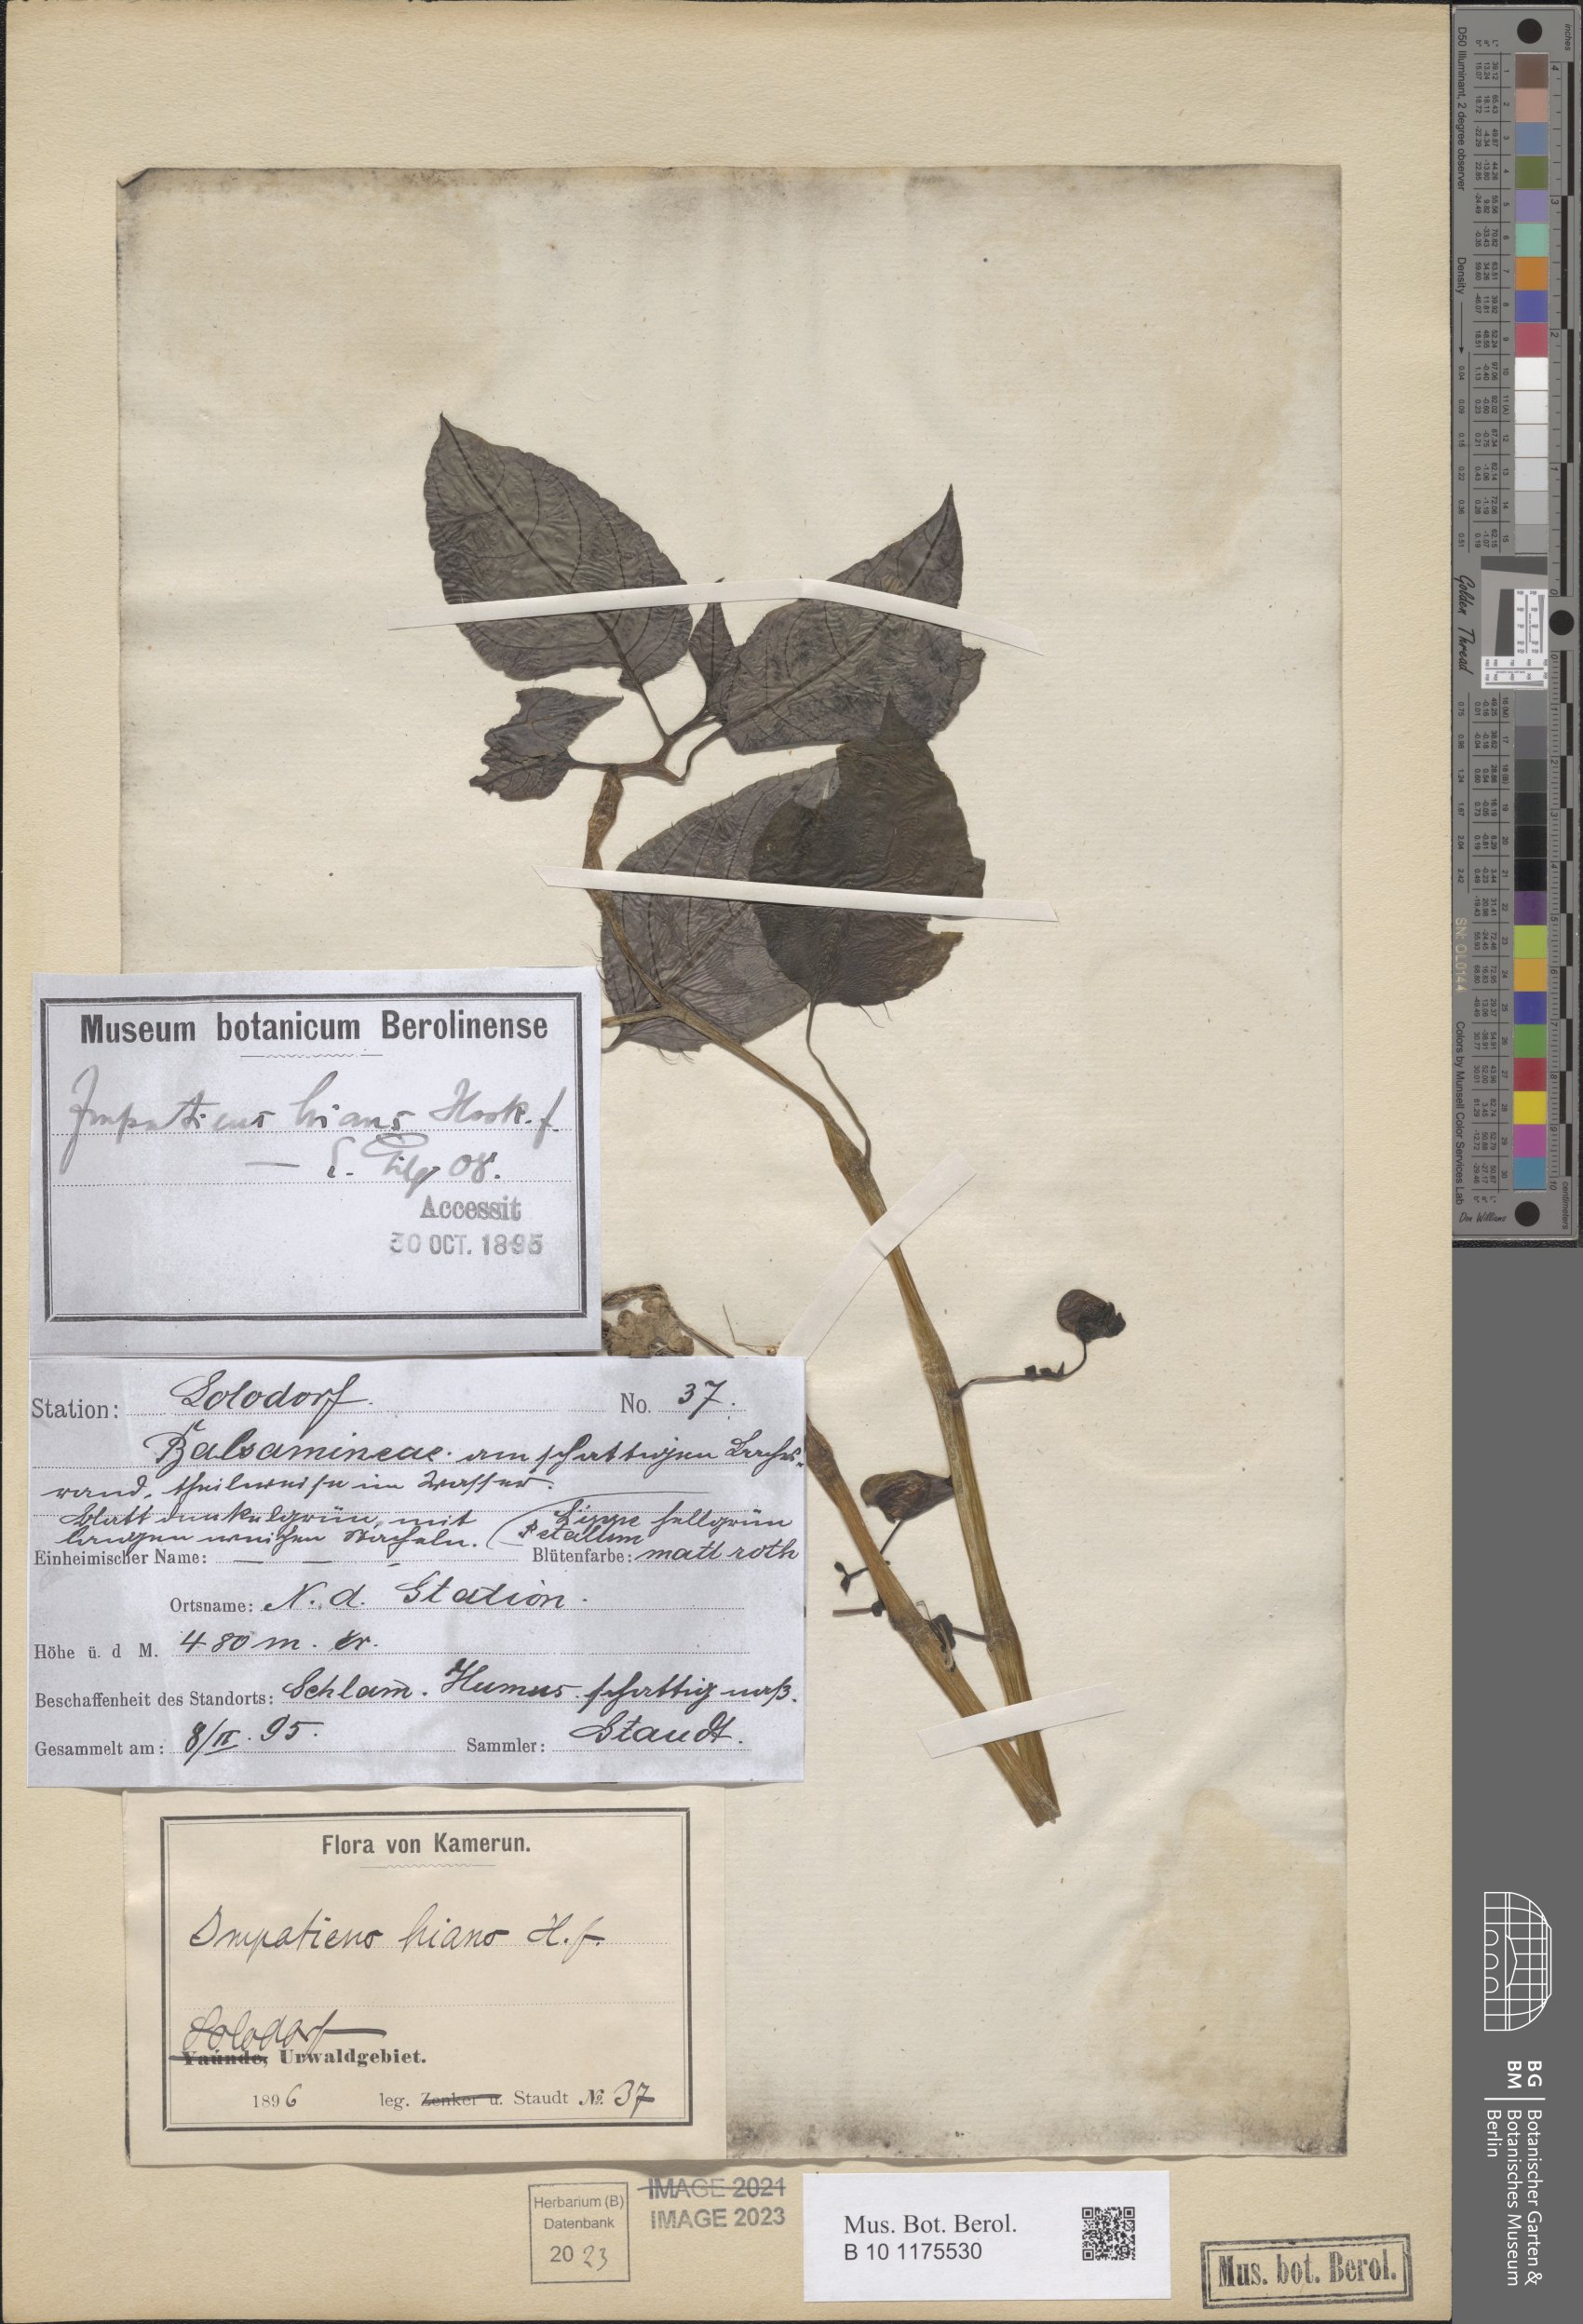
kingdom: Plantae
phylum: Tracheophyta
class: Magnoliopsida
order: Ericales
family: Balsaminaceae
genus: Impatiens
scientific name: Impatiens hians
